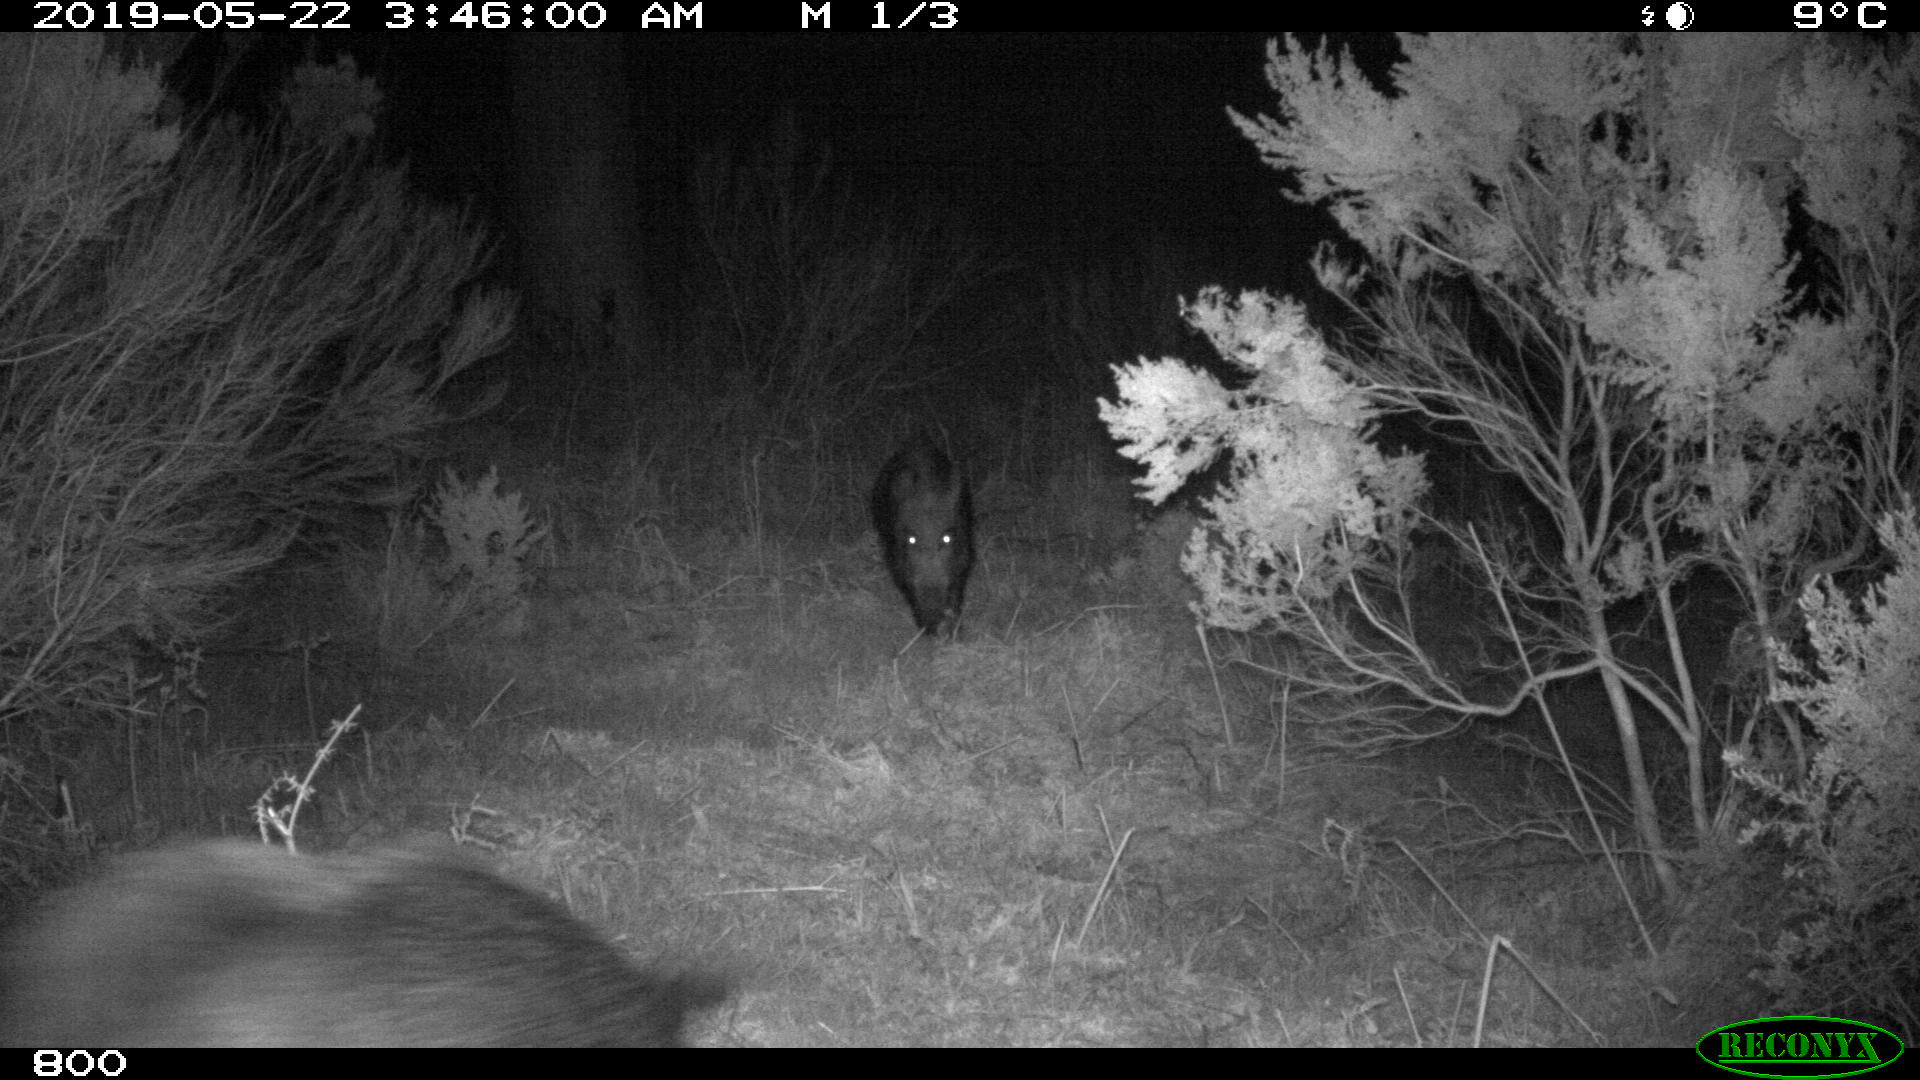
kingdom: Animalia
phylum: Chordata
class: Mammalia
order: Artiodactyla
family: Suidae
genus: Sus
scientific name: Sus scrofa
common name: Wild boar
